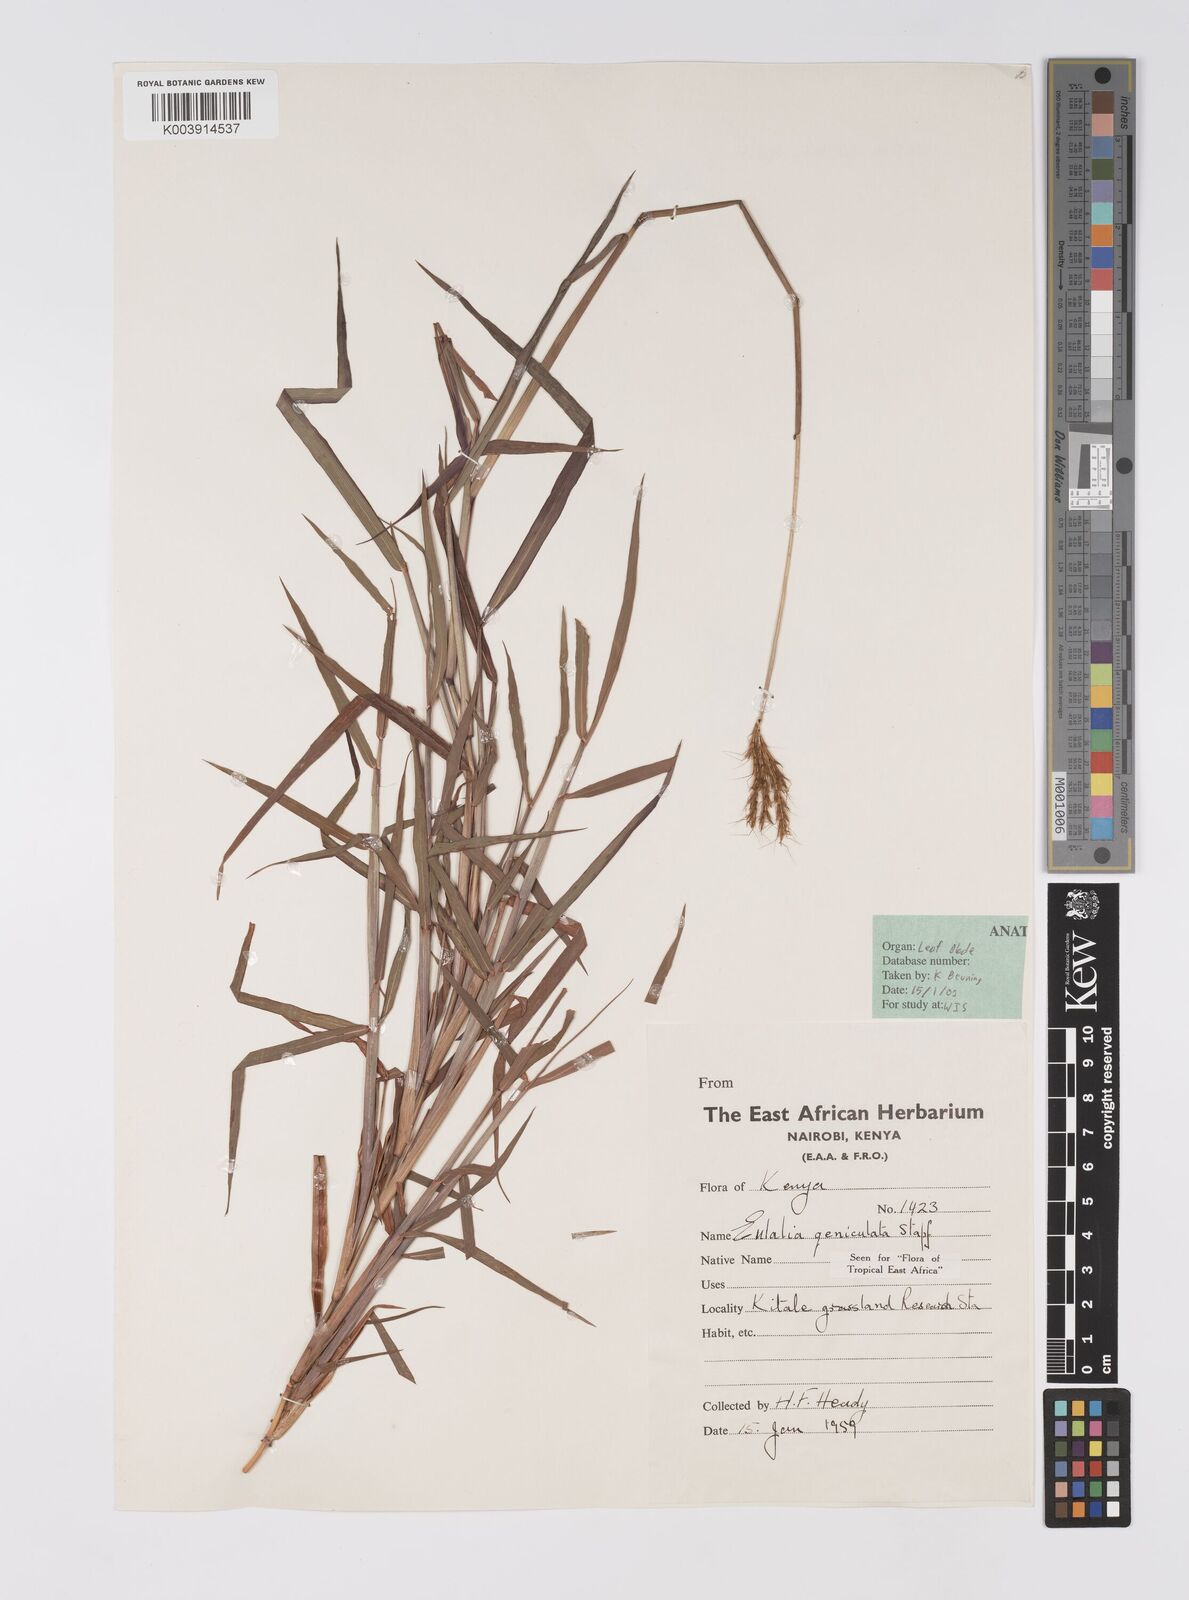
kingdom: Plantae
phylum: Tracheophyta
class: Liliopsida
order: Poales
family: Poaceae
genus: Eulalia
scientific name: Eulalia aurea
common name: Silky browntop
